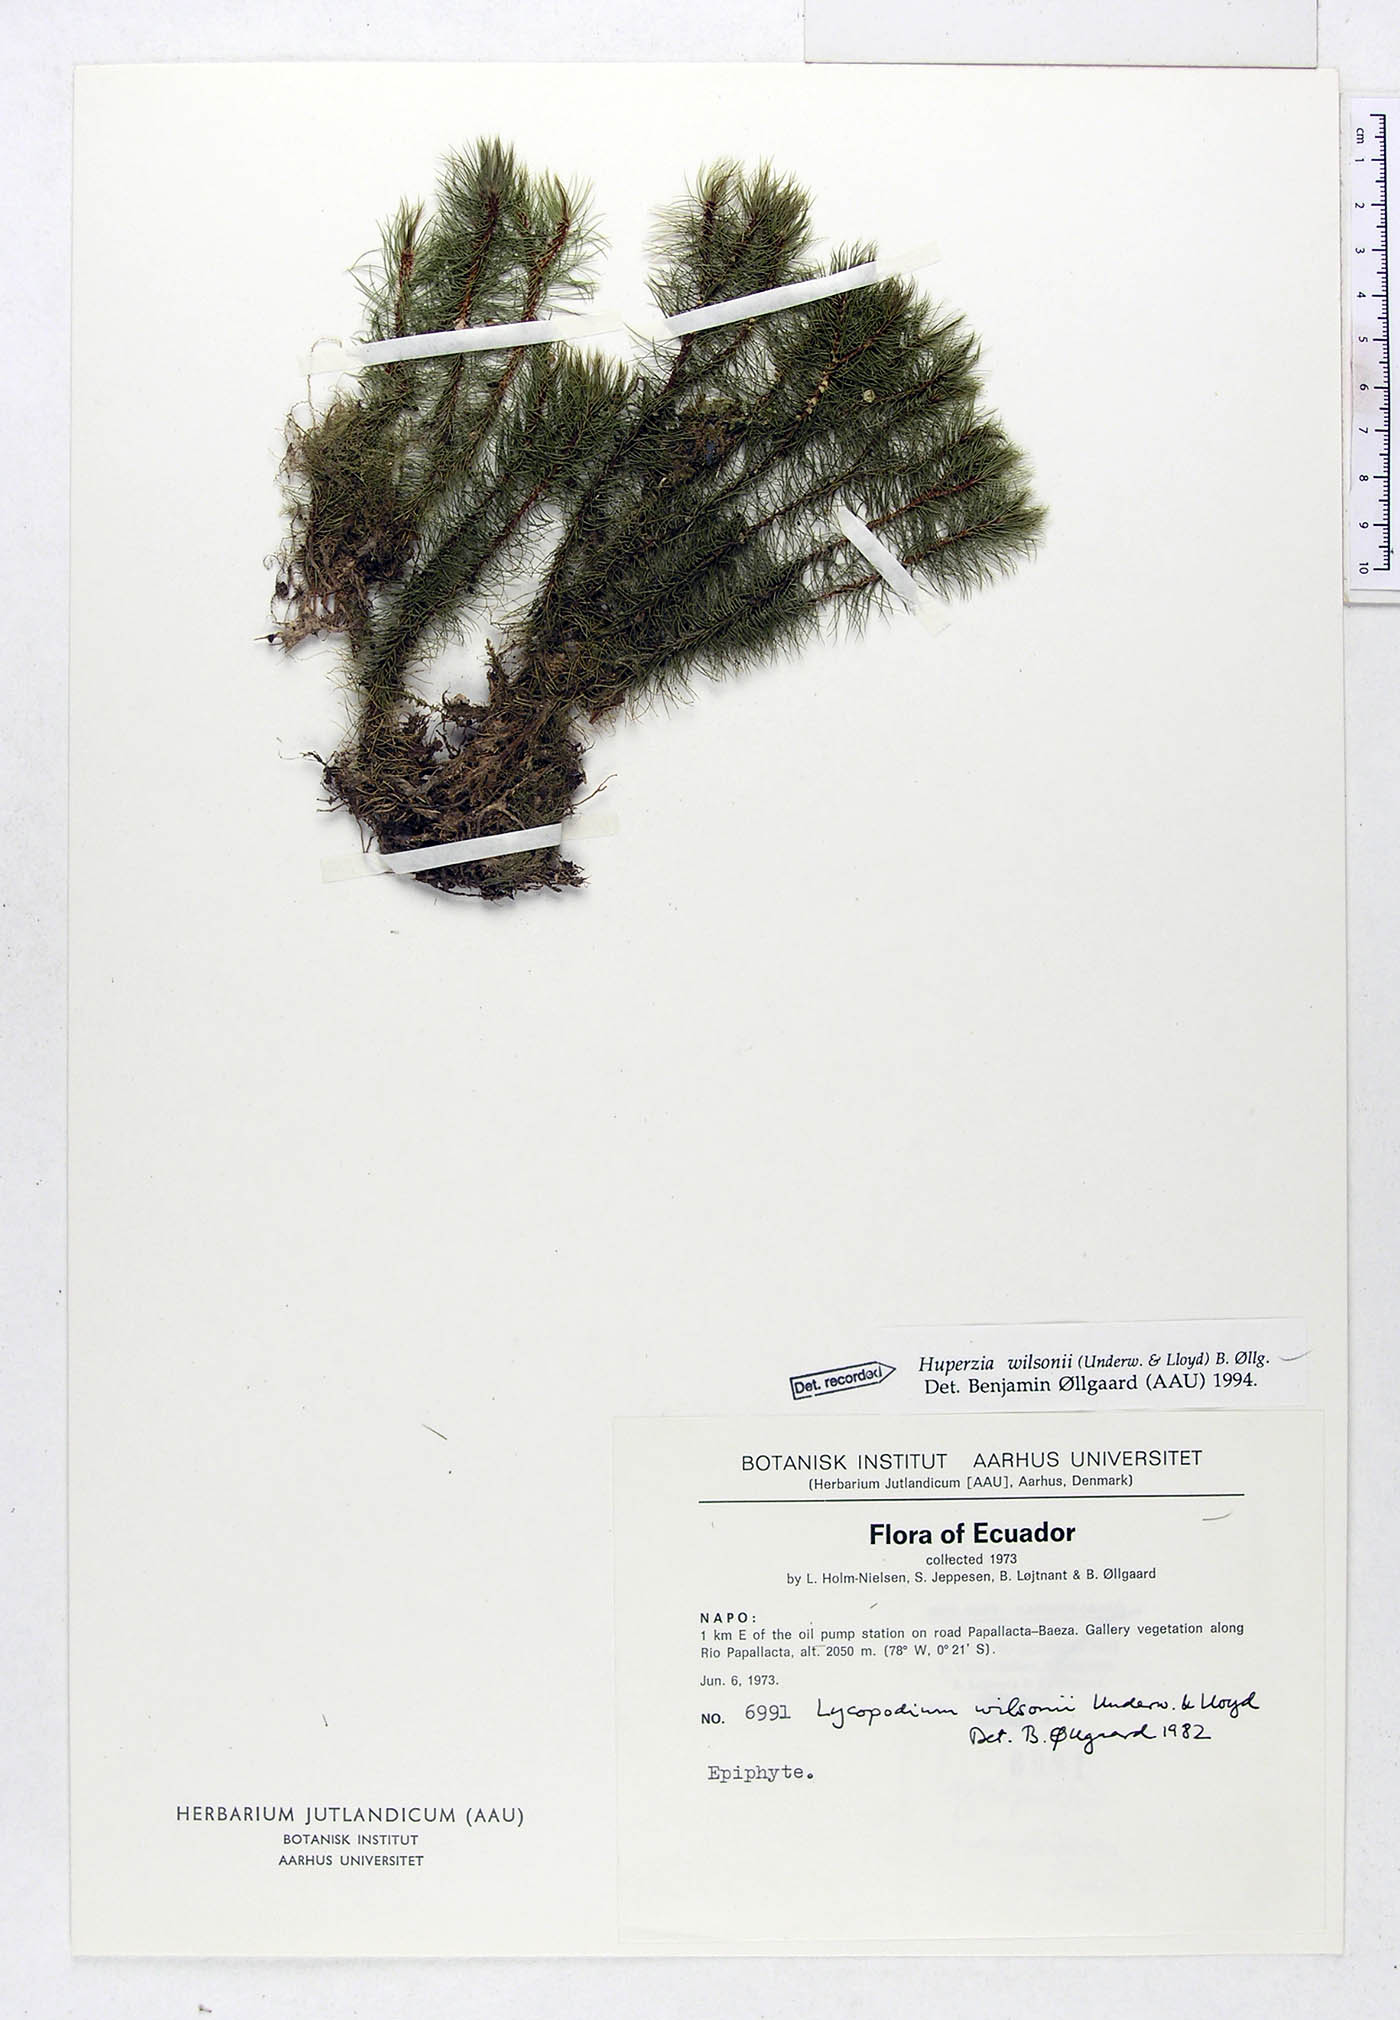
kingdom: Plantae
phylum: Tracheophyta
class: Lycopodiopsida
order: Lycopodiales
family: Lycopodiaceae
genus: Phlegmariurus
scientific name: Phlegmariurus wilsonii
